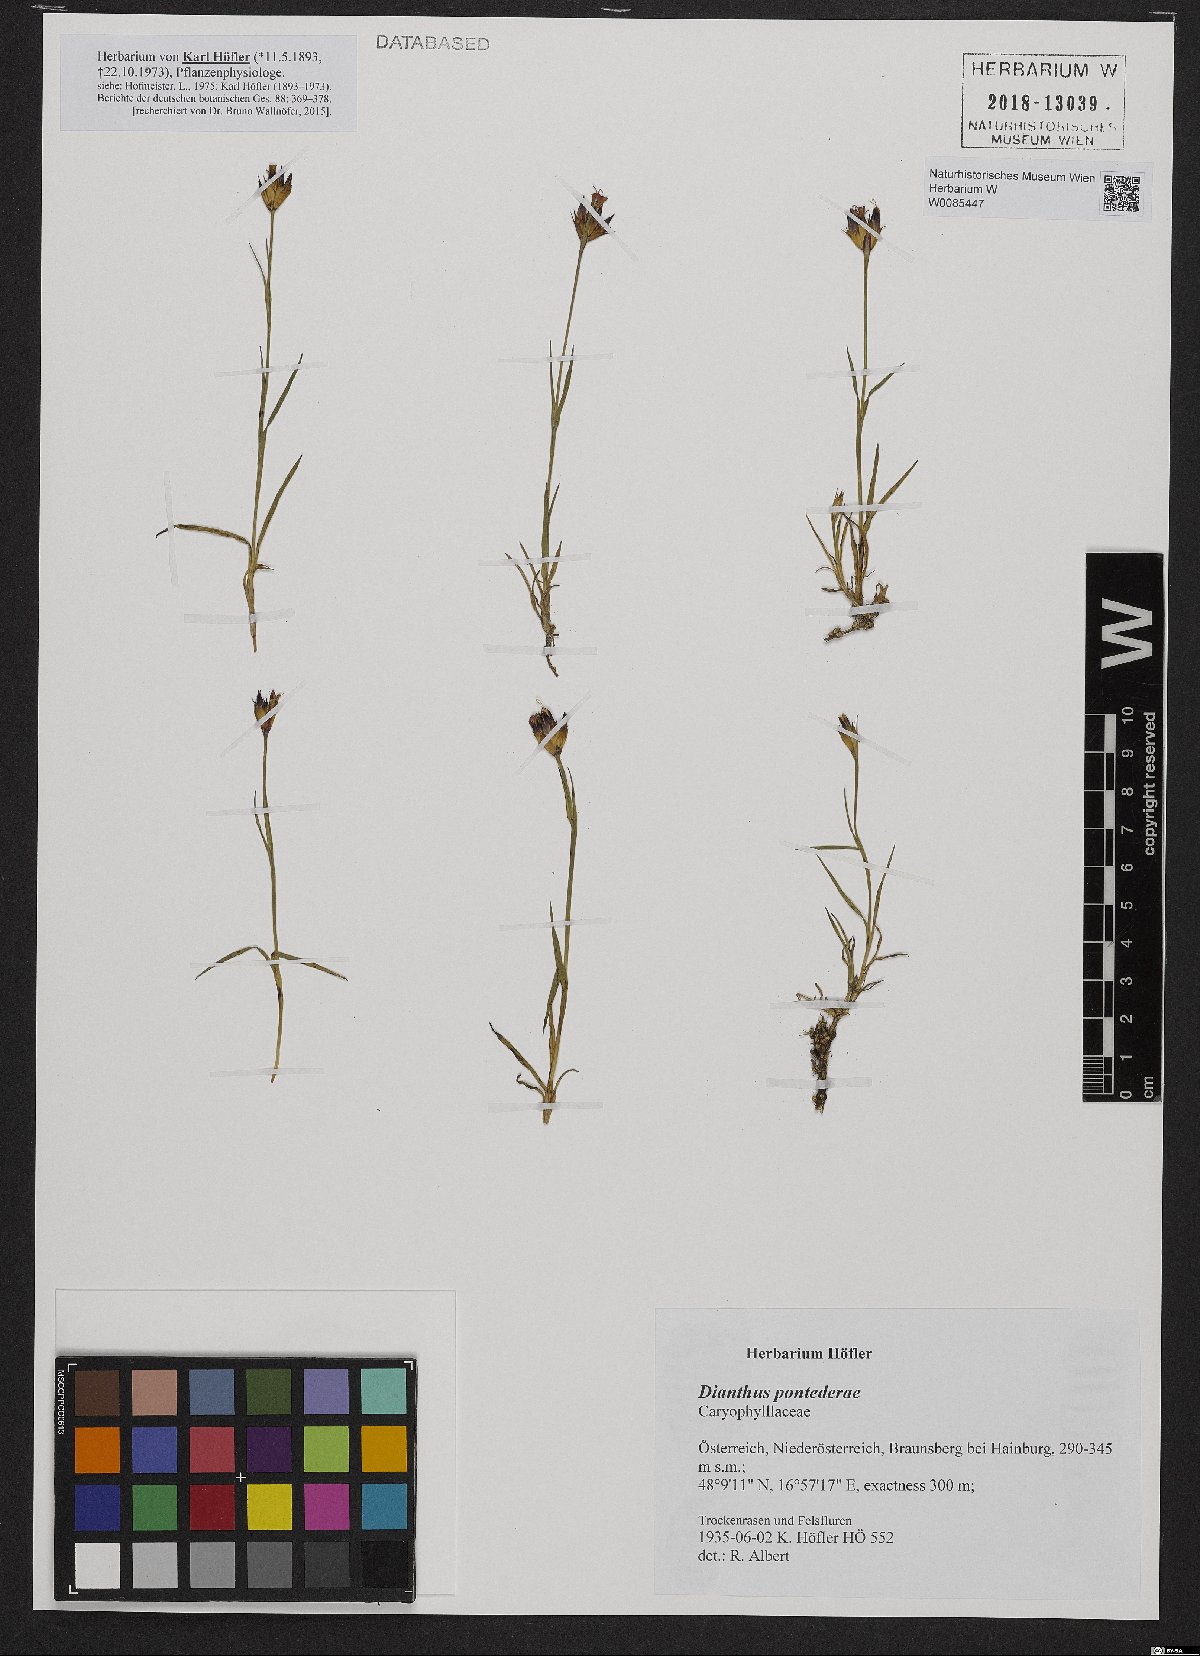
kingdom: Plantae
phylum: Tracheophyta
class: Magnoliopsida
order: Caryophyllales
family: Caryophyllaceae
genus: Dianthus
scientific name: Dianthus pontederae
